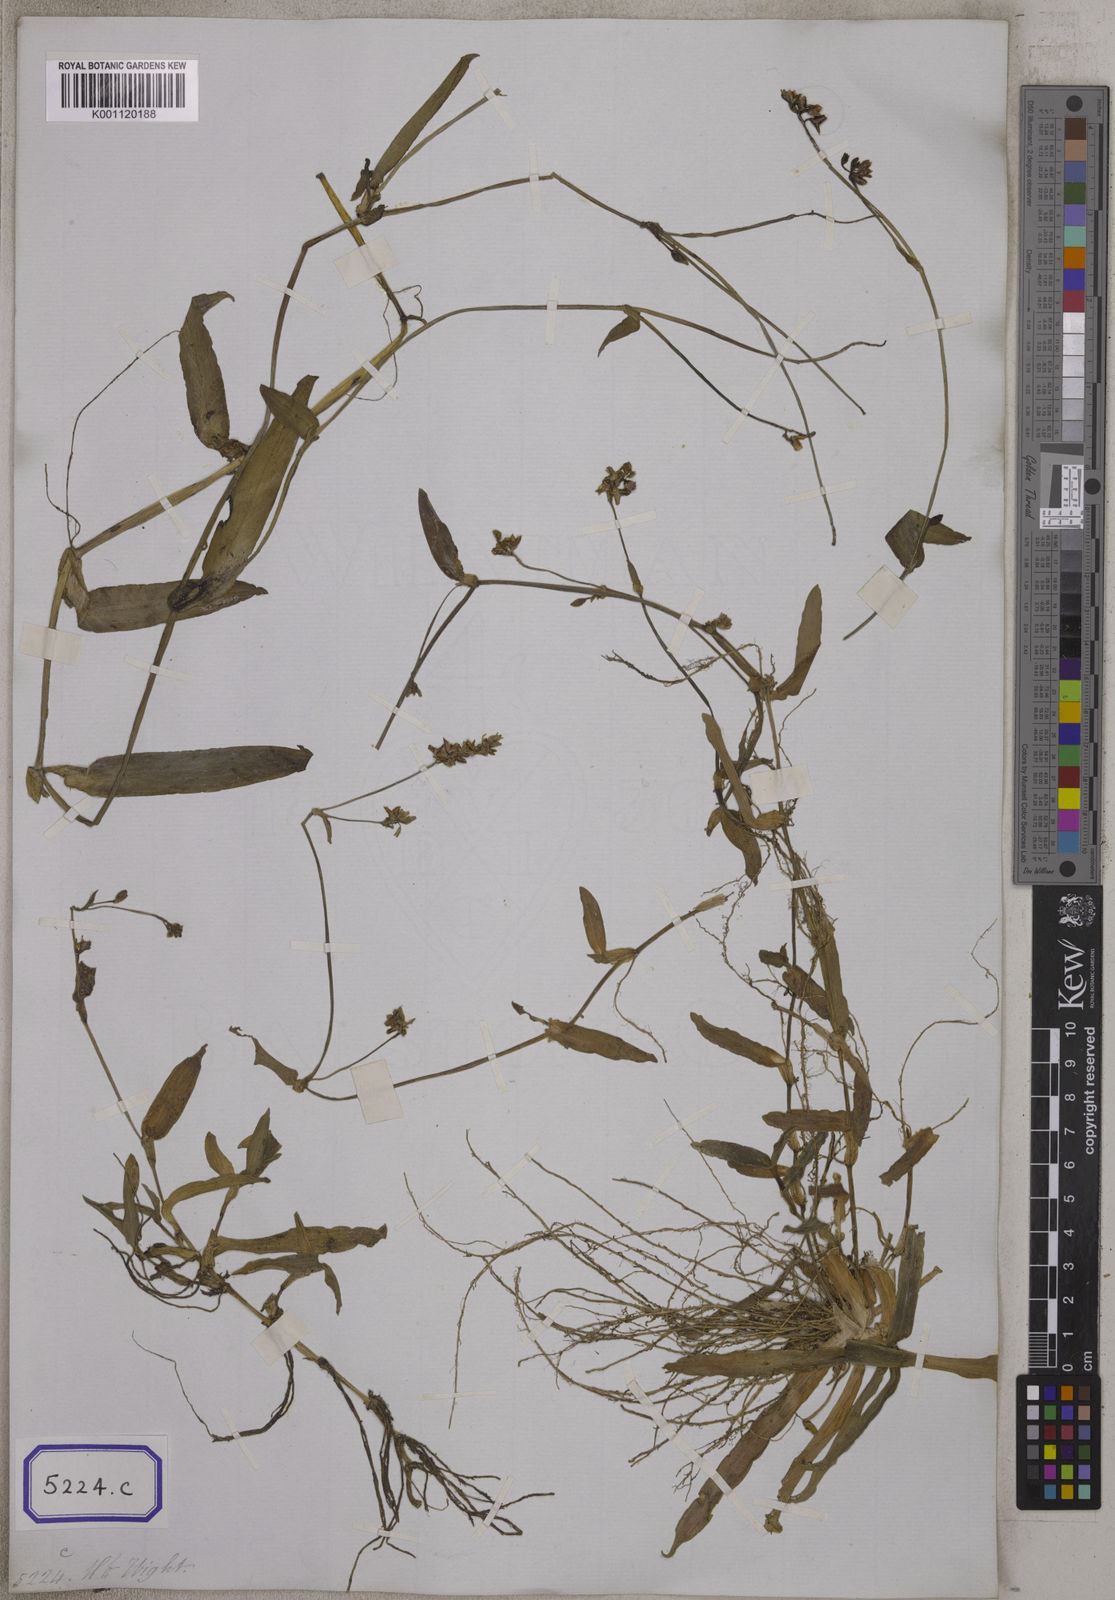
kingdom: Plantae
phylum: Tracheophyta
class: Liliopsida
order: Commelinales
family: Commelinaceae
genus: Aneilema
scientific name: Aneilema
